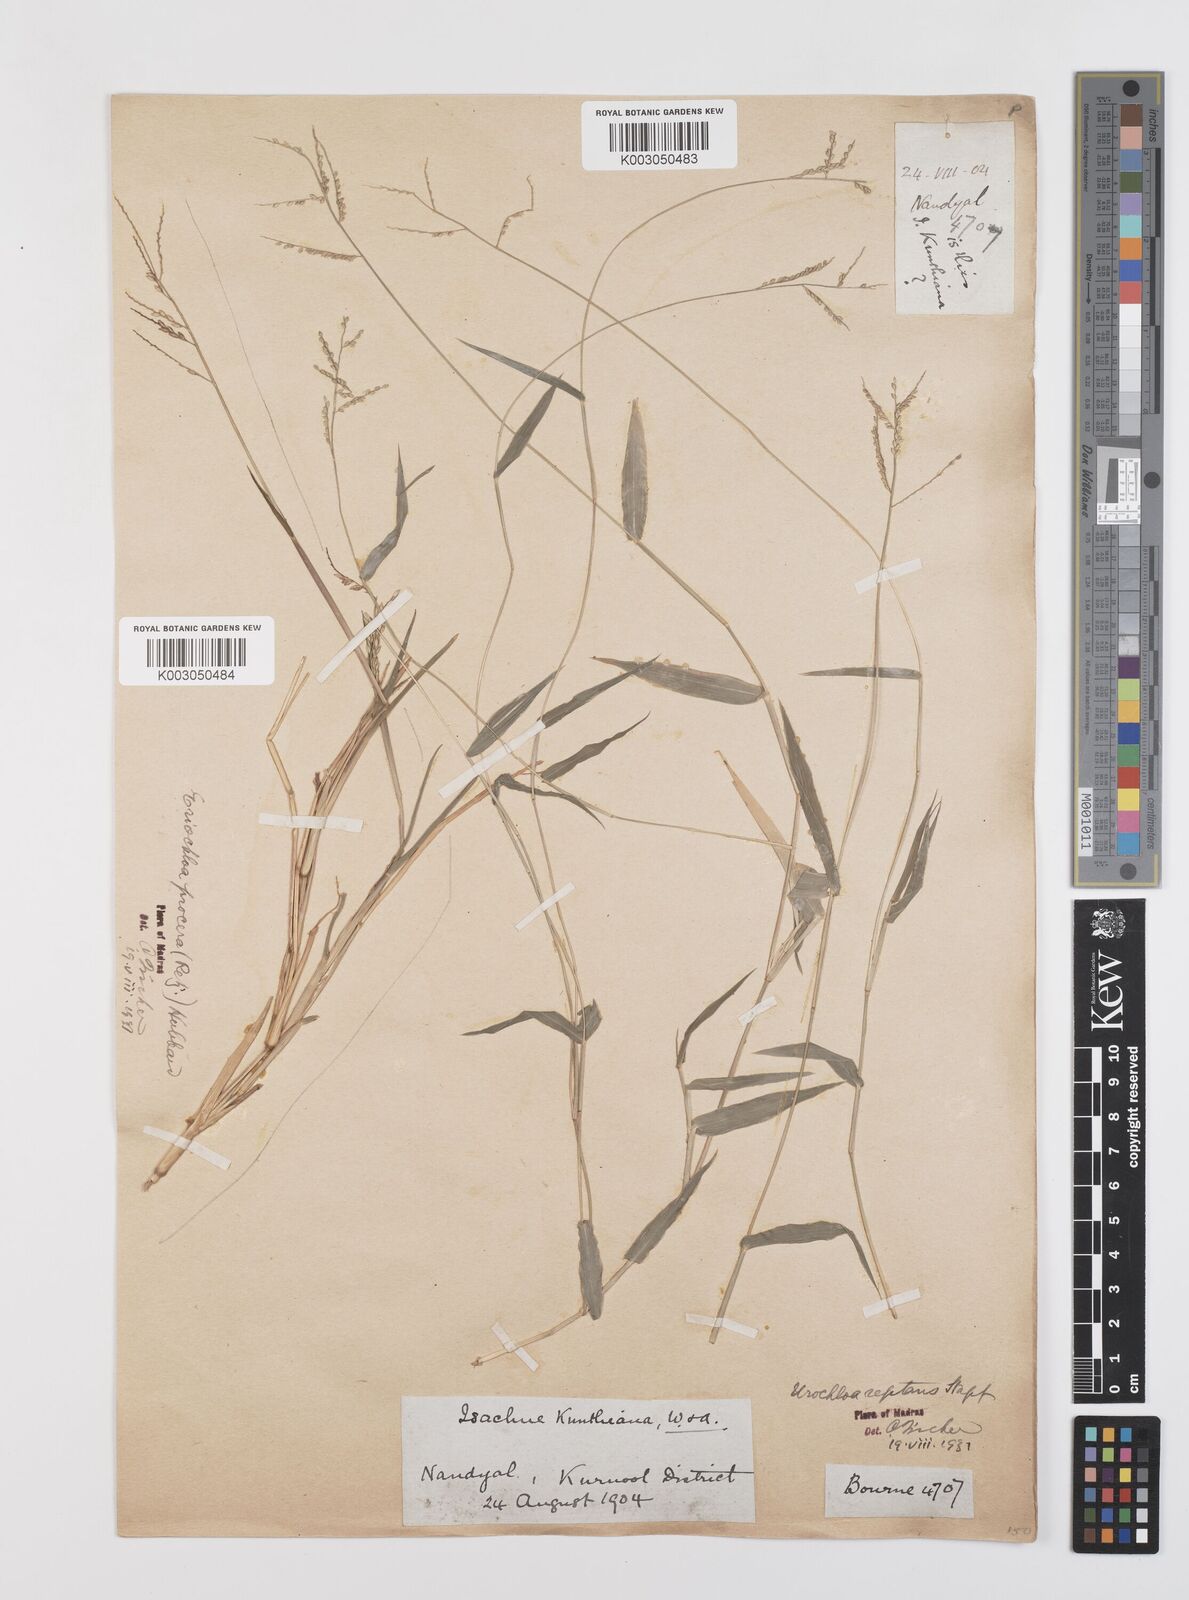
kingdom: Plantae
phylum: Tracheophyta
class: Liliopsida
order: Poales
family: Poaceae
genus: Urochloa
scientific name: Urochloa reptans
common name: Sprawling signalgrass
